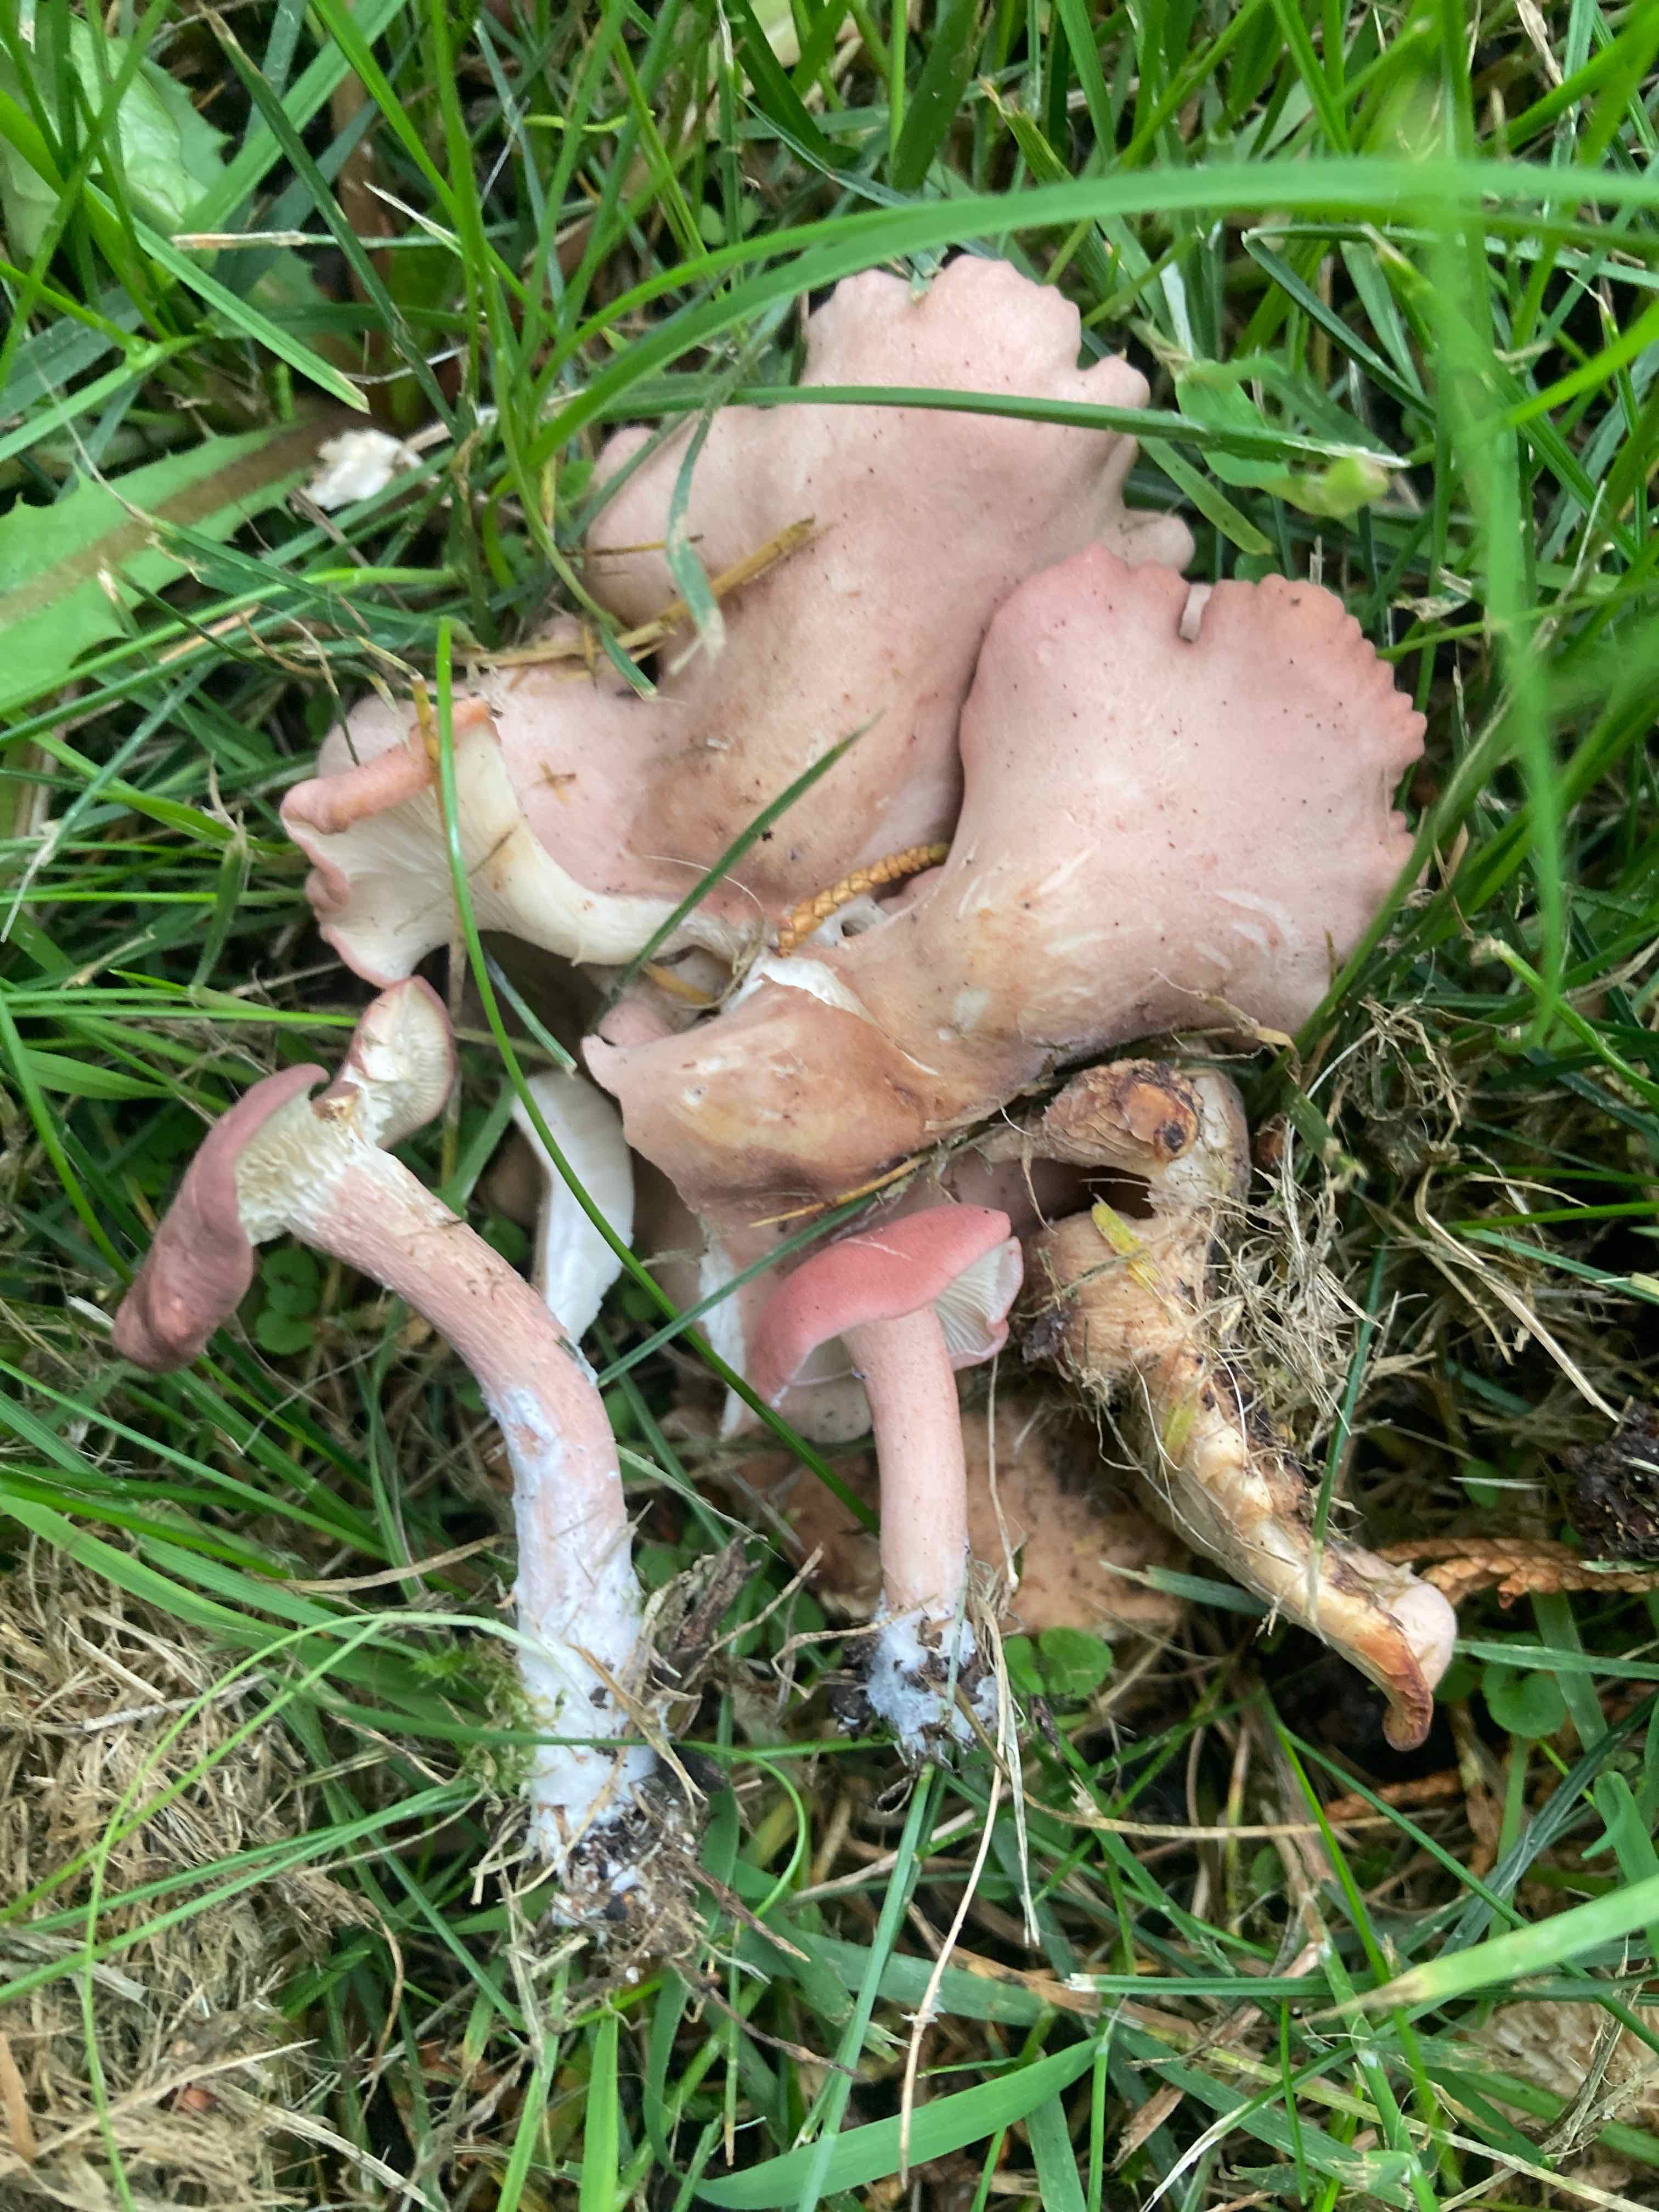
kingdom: Fungi
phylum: Basidiomycota
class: Agaricomycetes
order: Agaricales
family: Lyophyllaceae
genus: Calocybe
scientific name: Calocybe carnea
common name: rosa fagerhat
